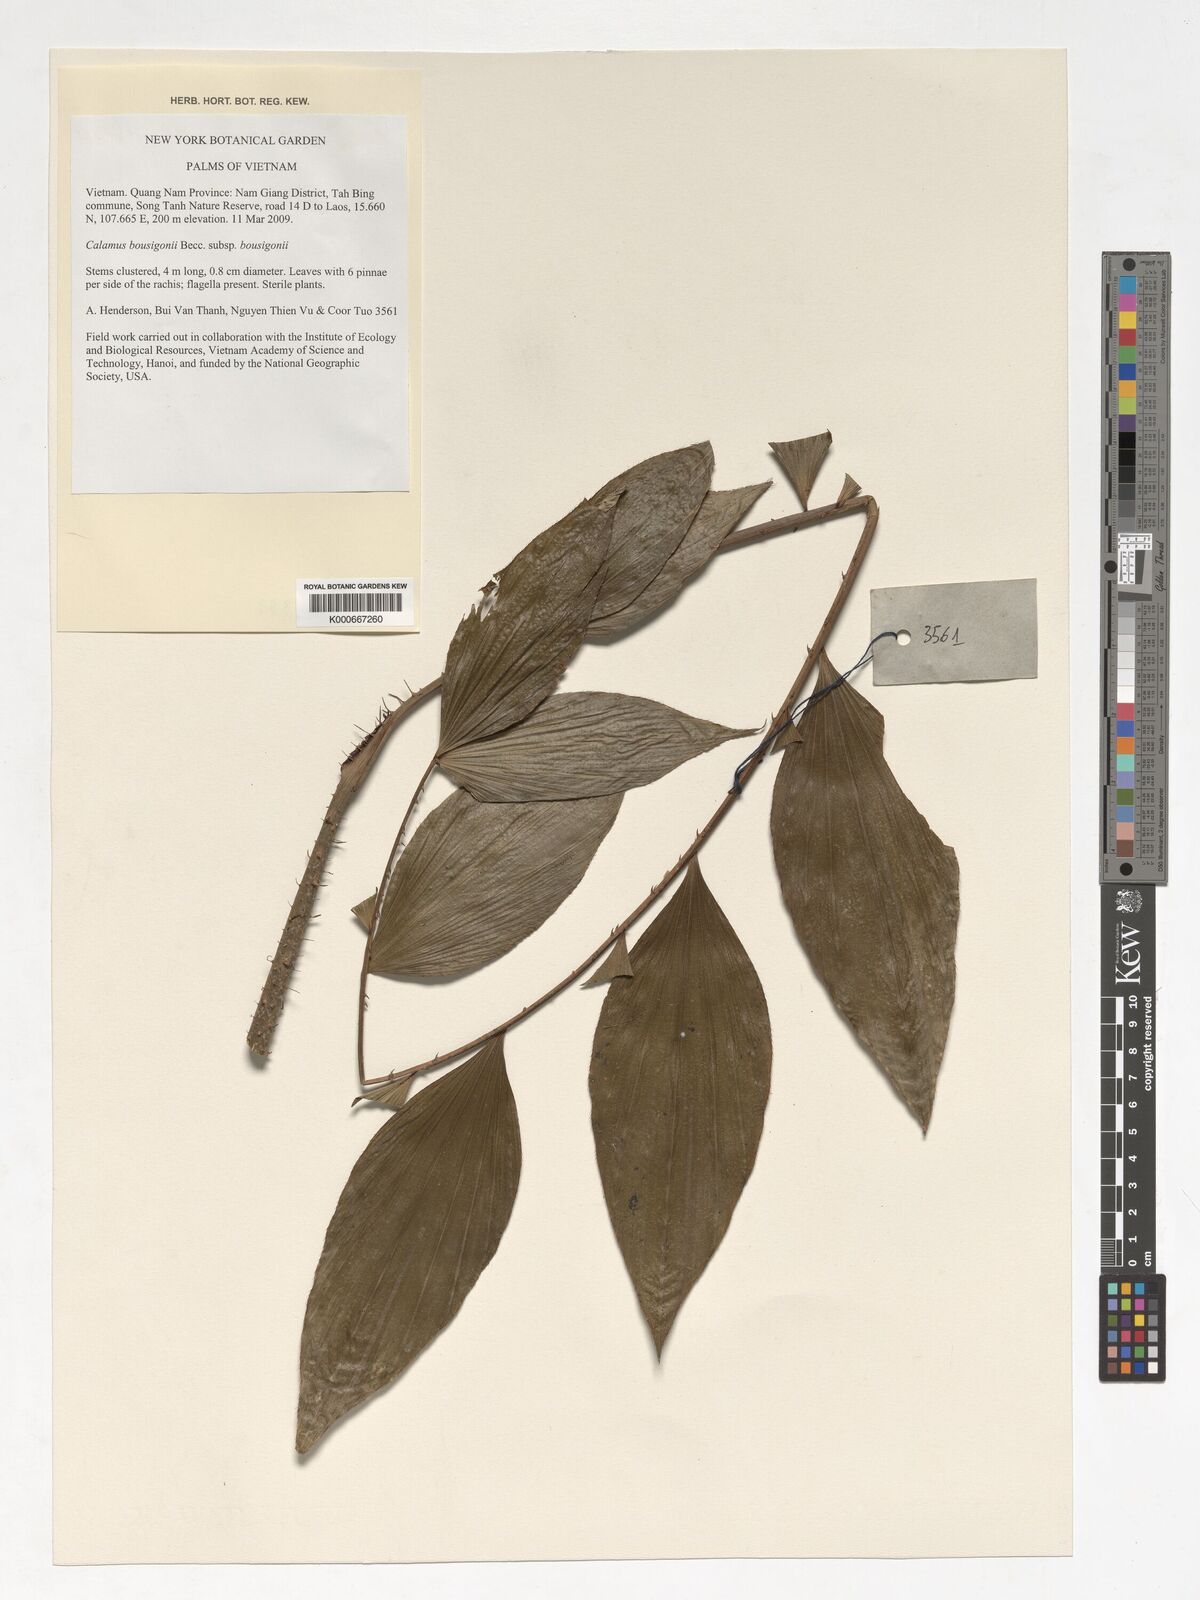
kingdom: Plantae
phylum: Tracheophyta
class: Liliopsida
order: Arecales
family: Arecaceae
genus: Calamus
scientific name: Calamus bousigonii
